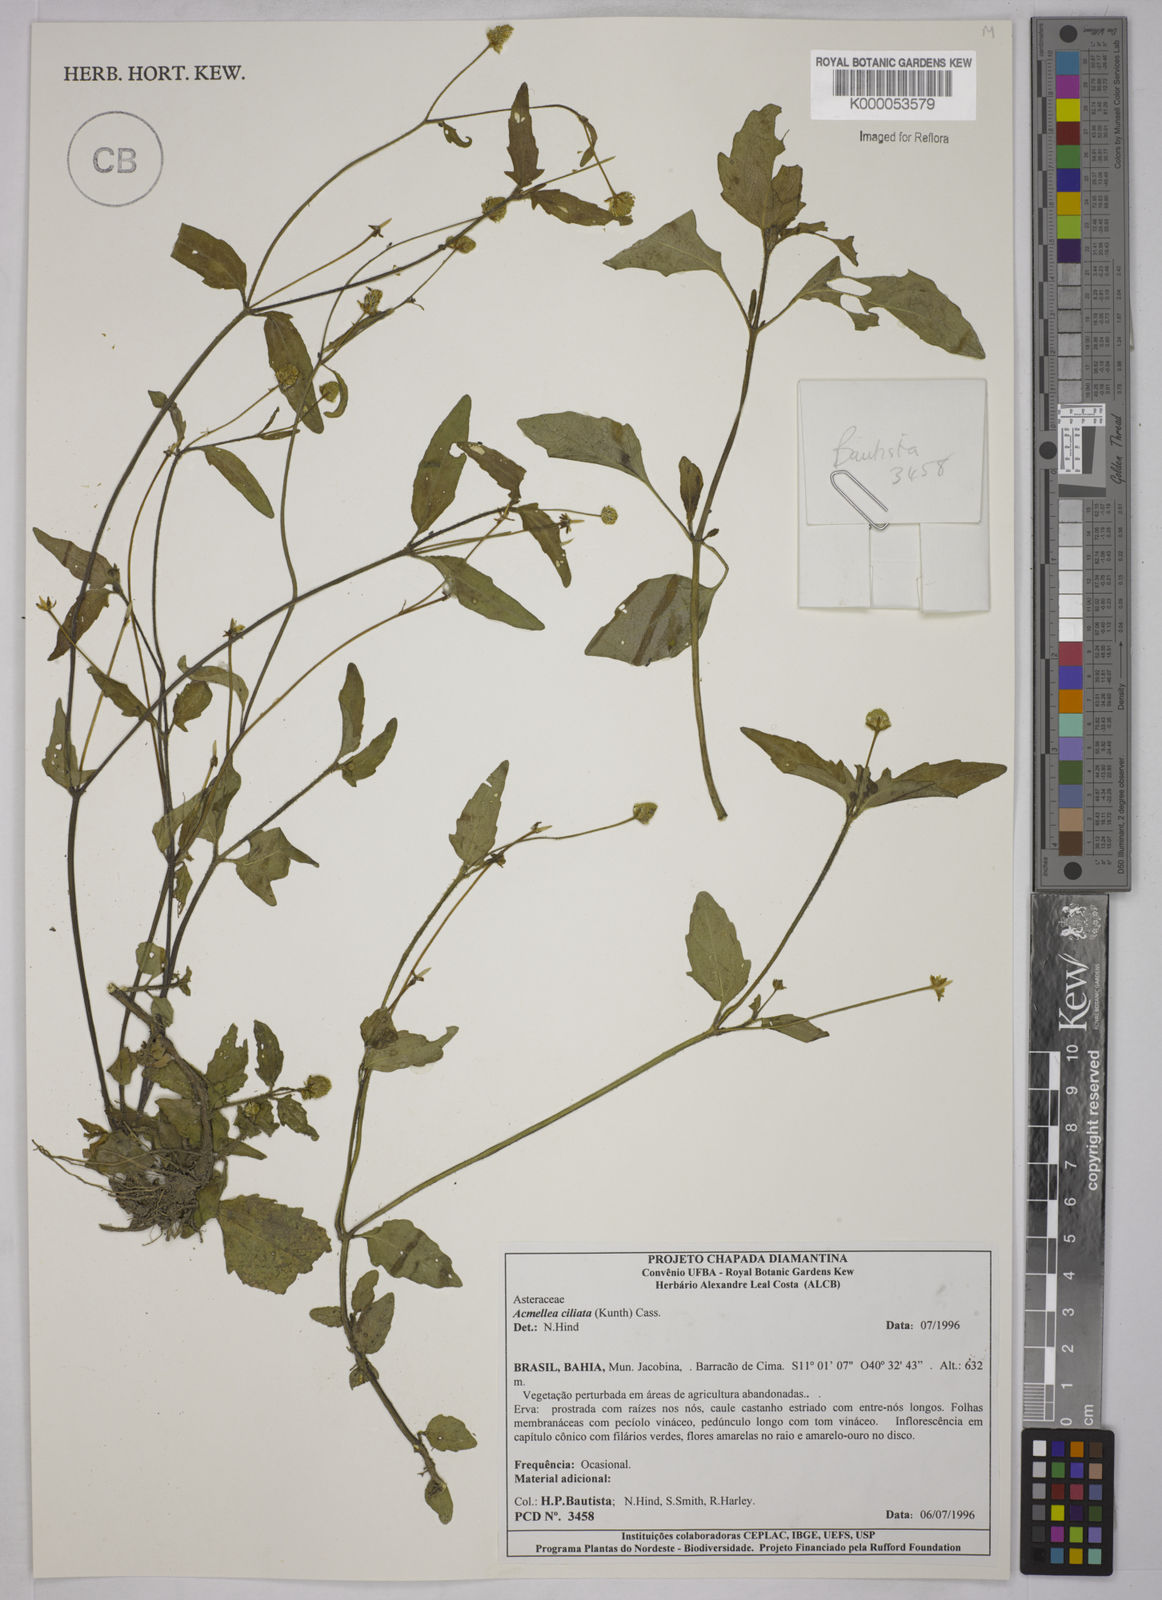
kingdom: Plantae
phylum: Tracheophyta
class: Magnoliopsida
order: Asterales
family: Asteraceae
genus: Acmella
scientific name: Acmella ciliata
